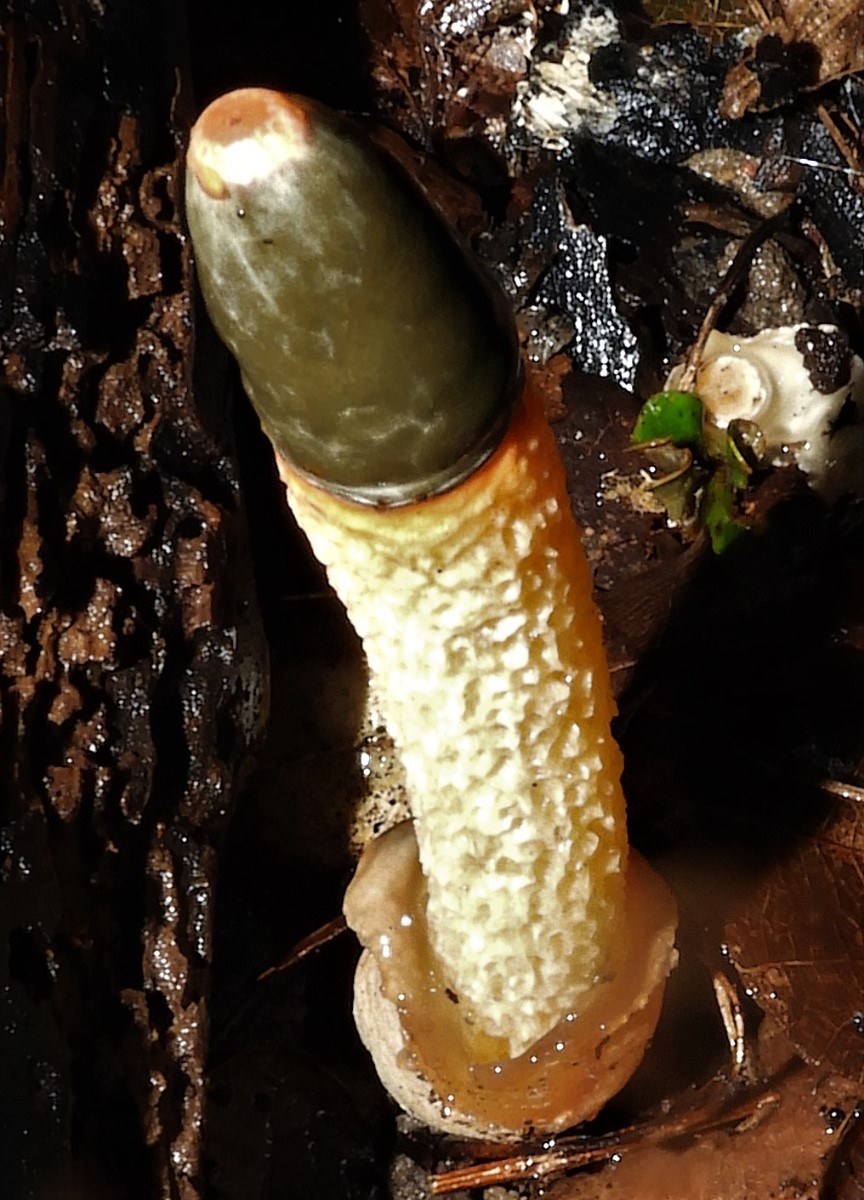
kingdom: Fungi
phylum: Basidiomycota
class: Agaricomycetes
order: Phallales
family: Phallaceae
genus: Mutinus
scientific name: Mutinus caninus
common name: hunde-stinksvamp
